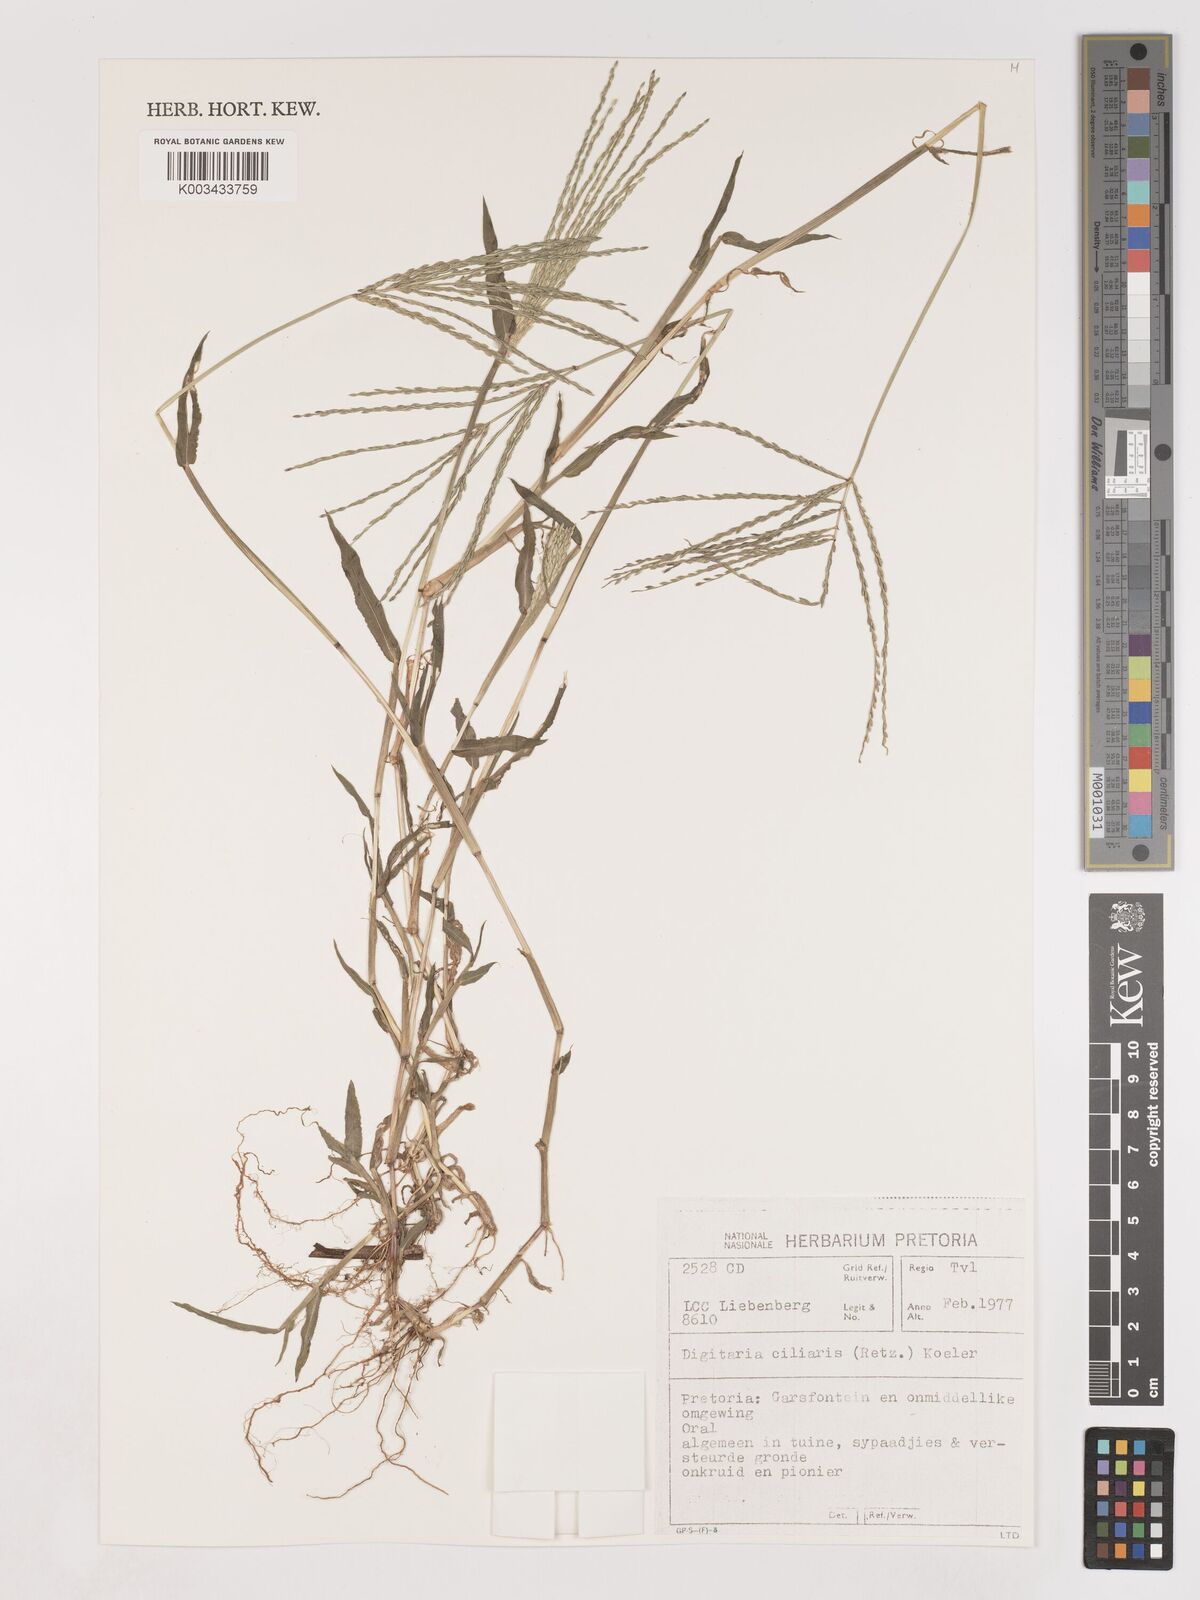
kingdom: Plantae
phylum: Tracheophyta
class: Liliopsida
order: Poales
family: Poaceae
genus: Digitaria
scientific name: Digitaria ciliaris
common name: Tropical finger-grass
